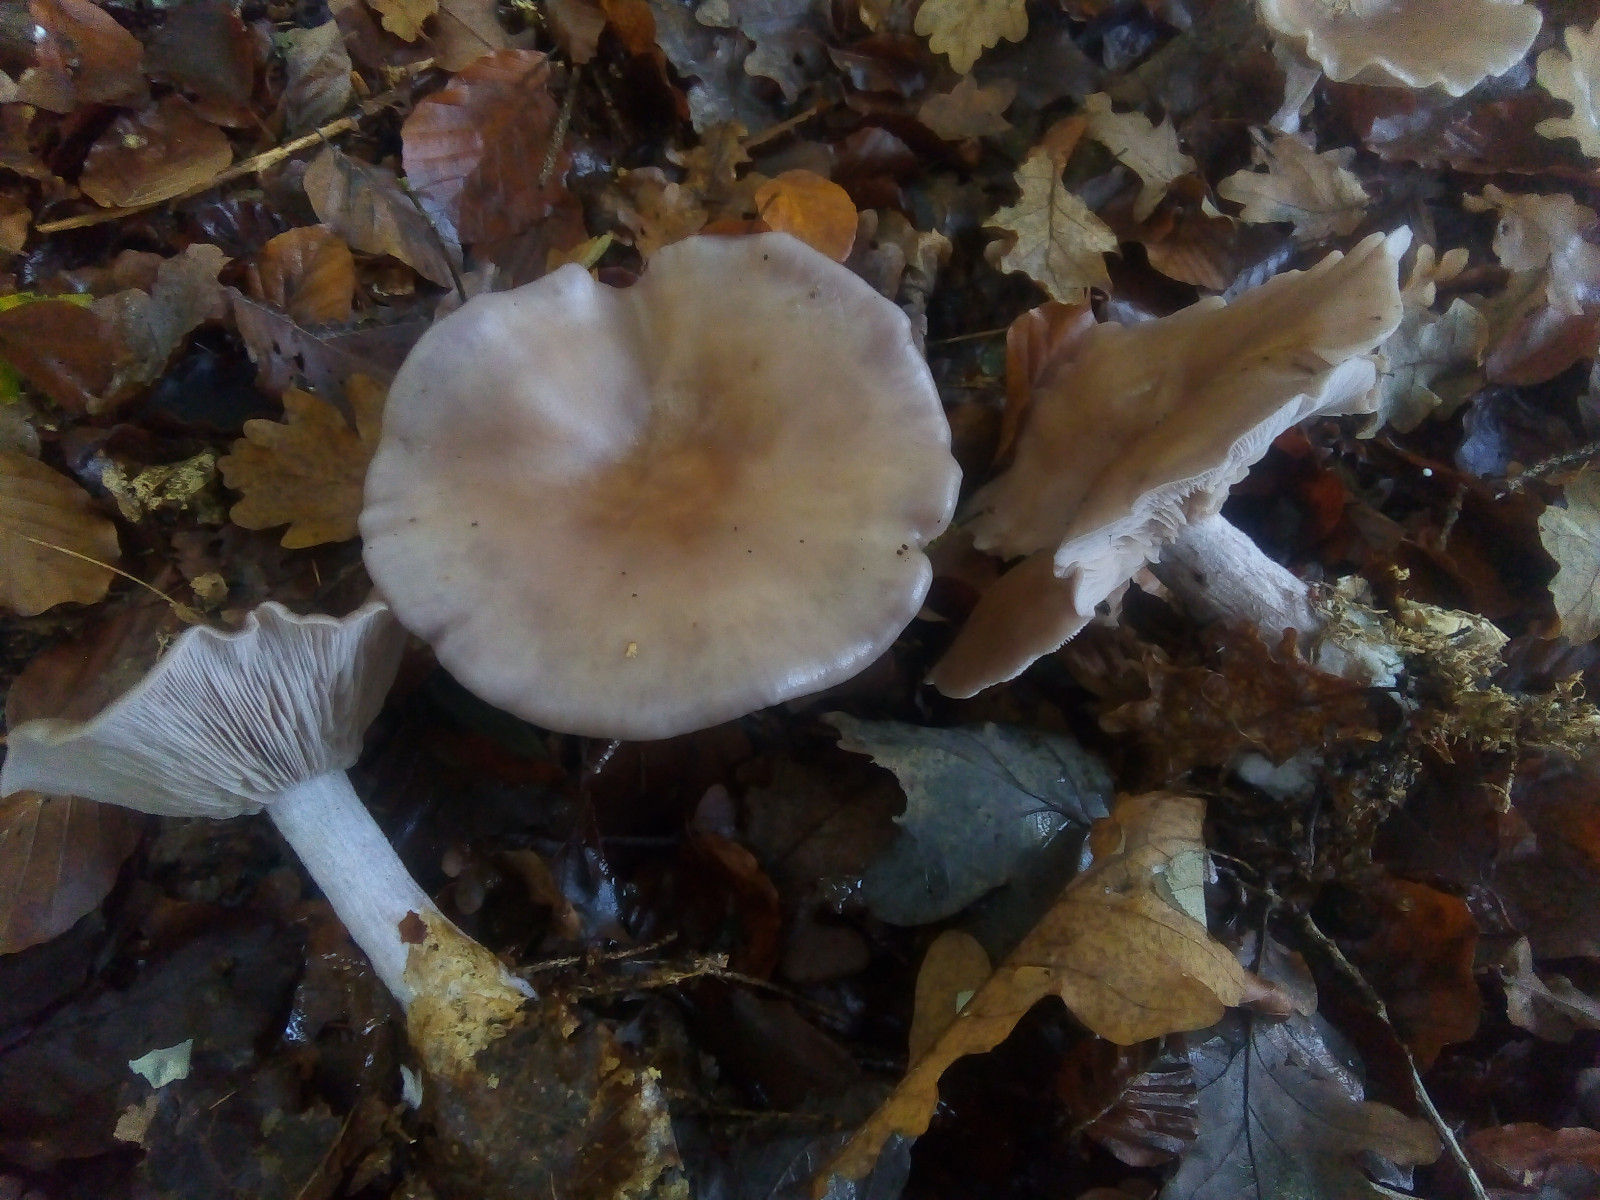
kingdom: Fungi
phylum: Basidiomycota
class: Agaricomycetes
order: Agaricales
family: Tricholomataceae
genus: Lepista
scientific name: Lepista nuda
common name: violet hekseringshat
